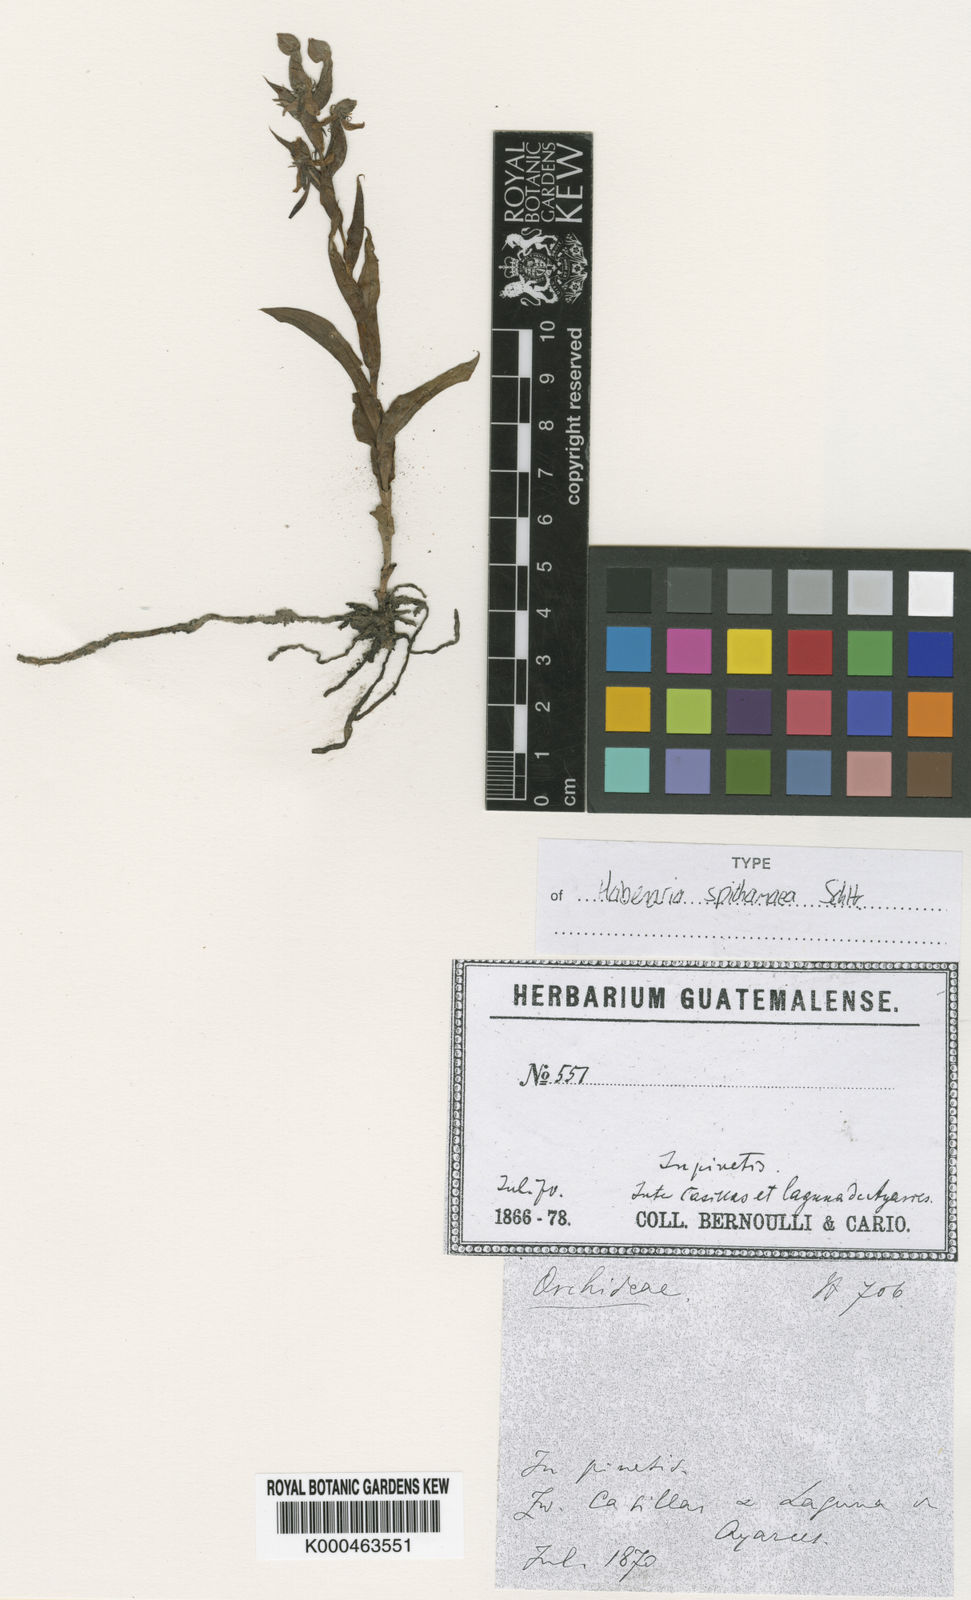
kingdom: Plantae
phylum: Tracheophyta
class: Liliopsida
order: Asparagales
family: Orchidaceae
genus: Habenaria
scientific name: Habenaria entomantha
